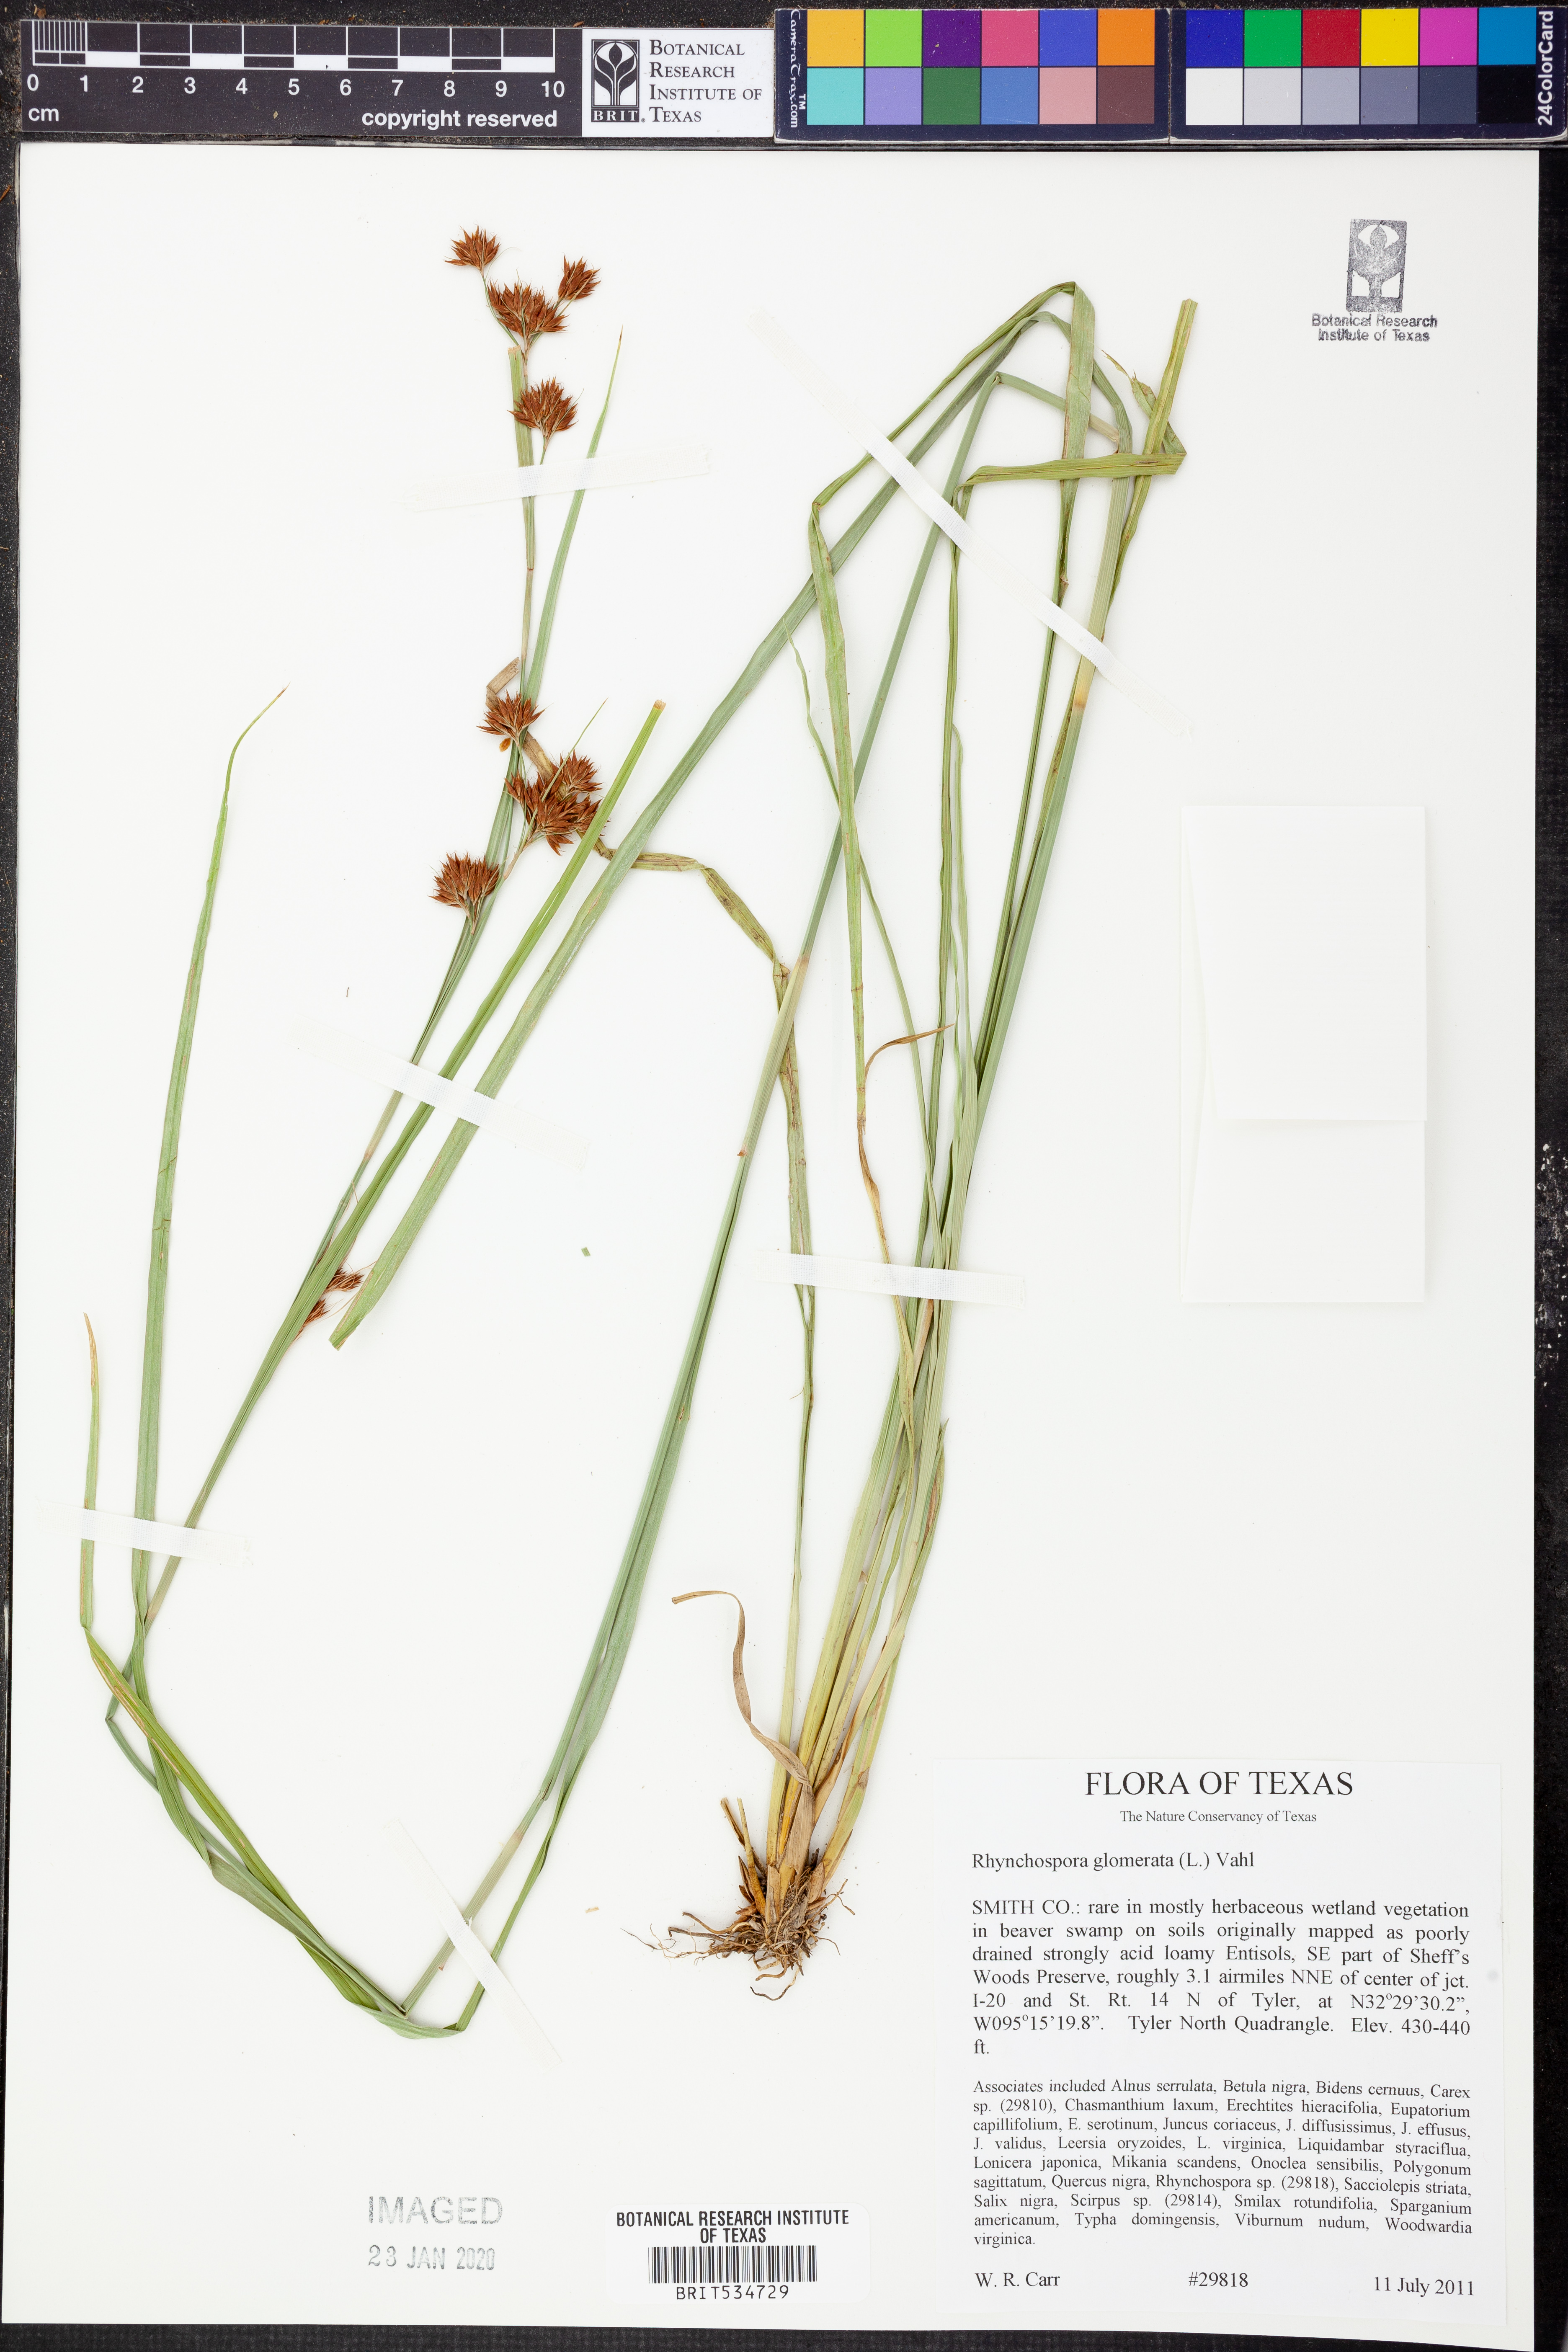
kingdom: Plantae
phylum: Tracheophyta
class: Liliopsida
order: Poales
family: Cyperaceae
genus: Rhynchospora
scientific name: Rhynchospora glomerata
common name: Cluster beak sedge
